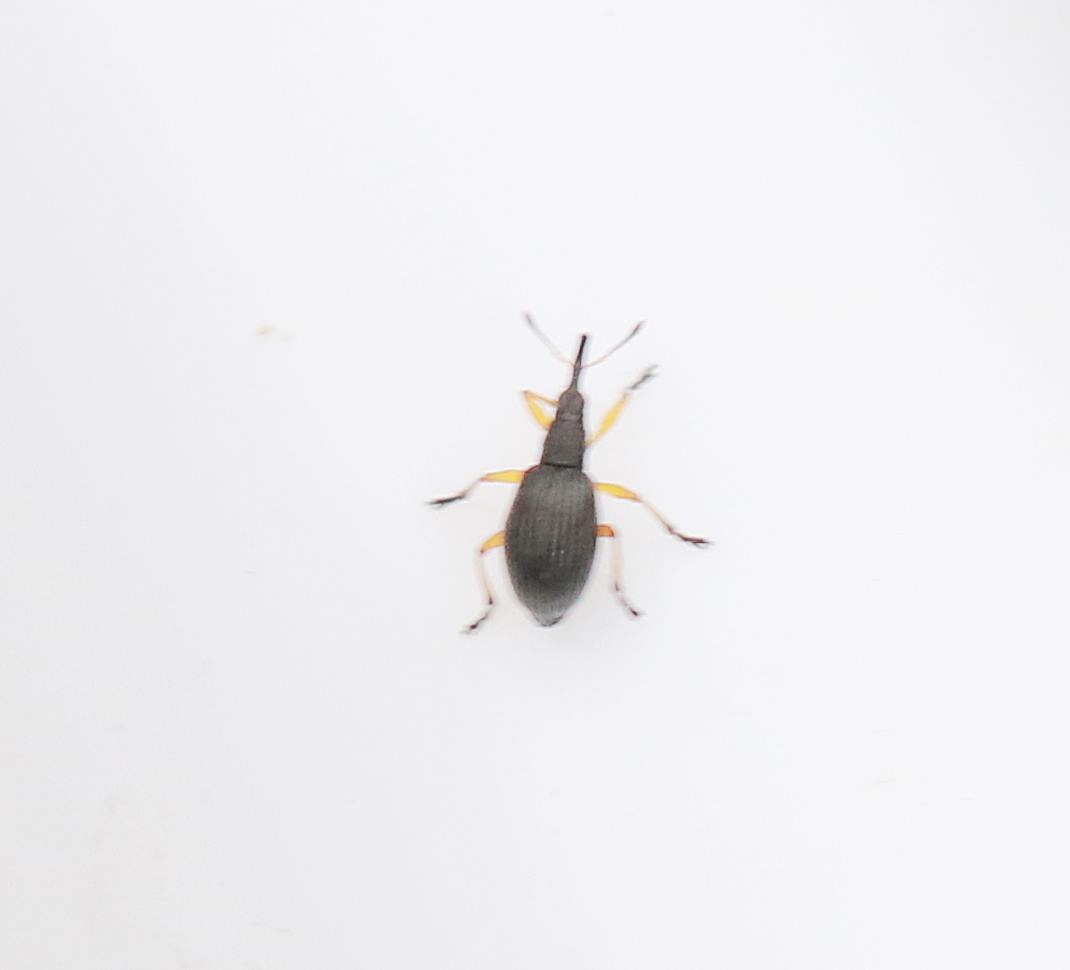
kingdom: Animalia
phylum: Arthropoda
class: Insecta
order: Coleoptera
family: Apionidae
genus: Protapion
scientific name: Protapion fulvipes
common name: Hvidkløversnudebille
